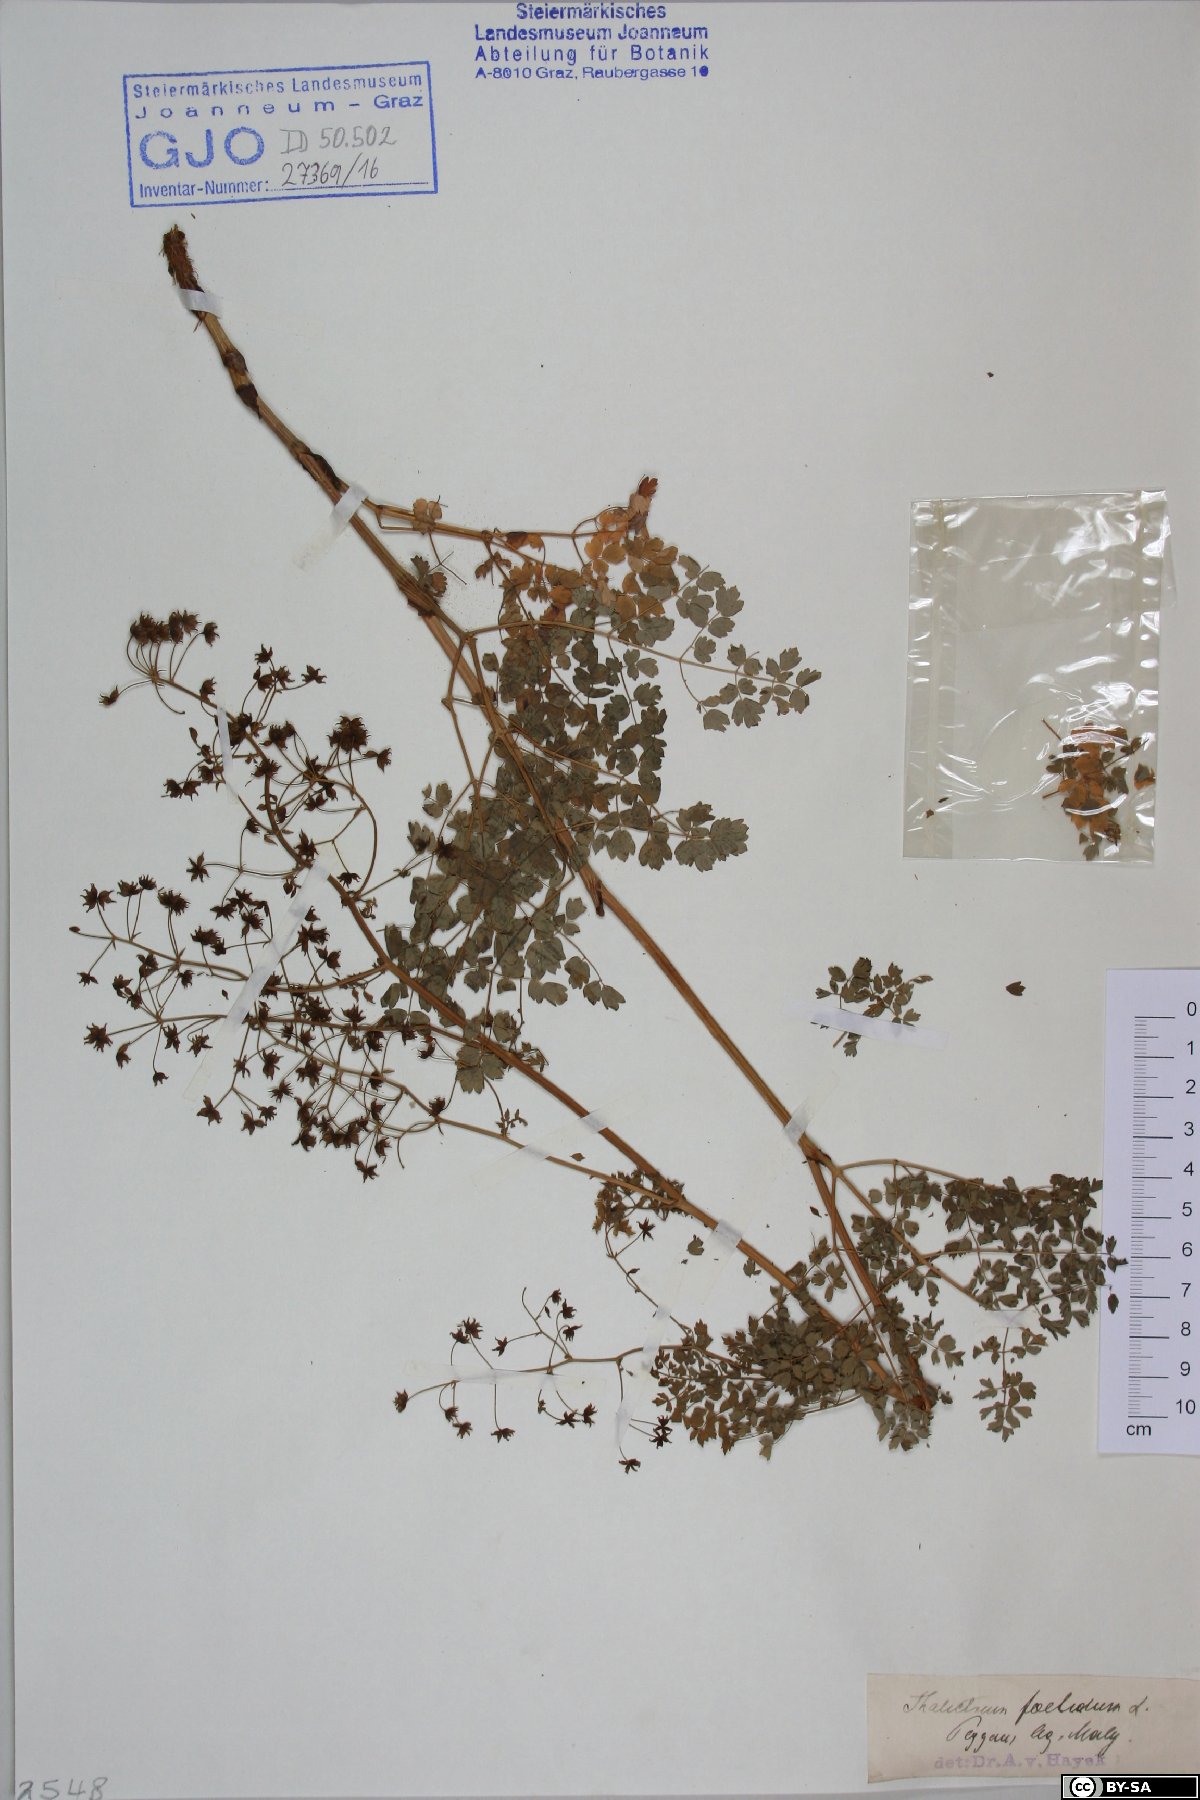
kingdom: Plantae
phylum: Tracheophyta
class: Magnoliopsida
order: Ranunculales
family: Ranunculaceae
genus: Thalictrum
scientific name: Thalictrum foetidum
